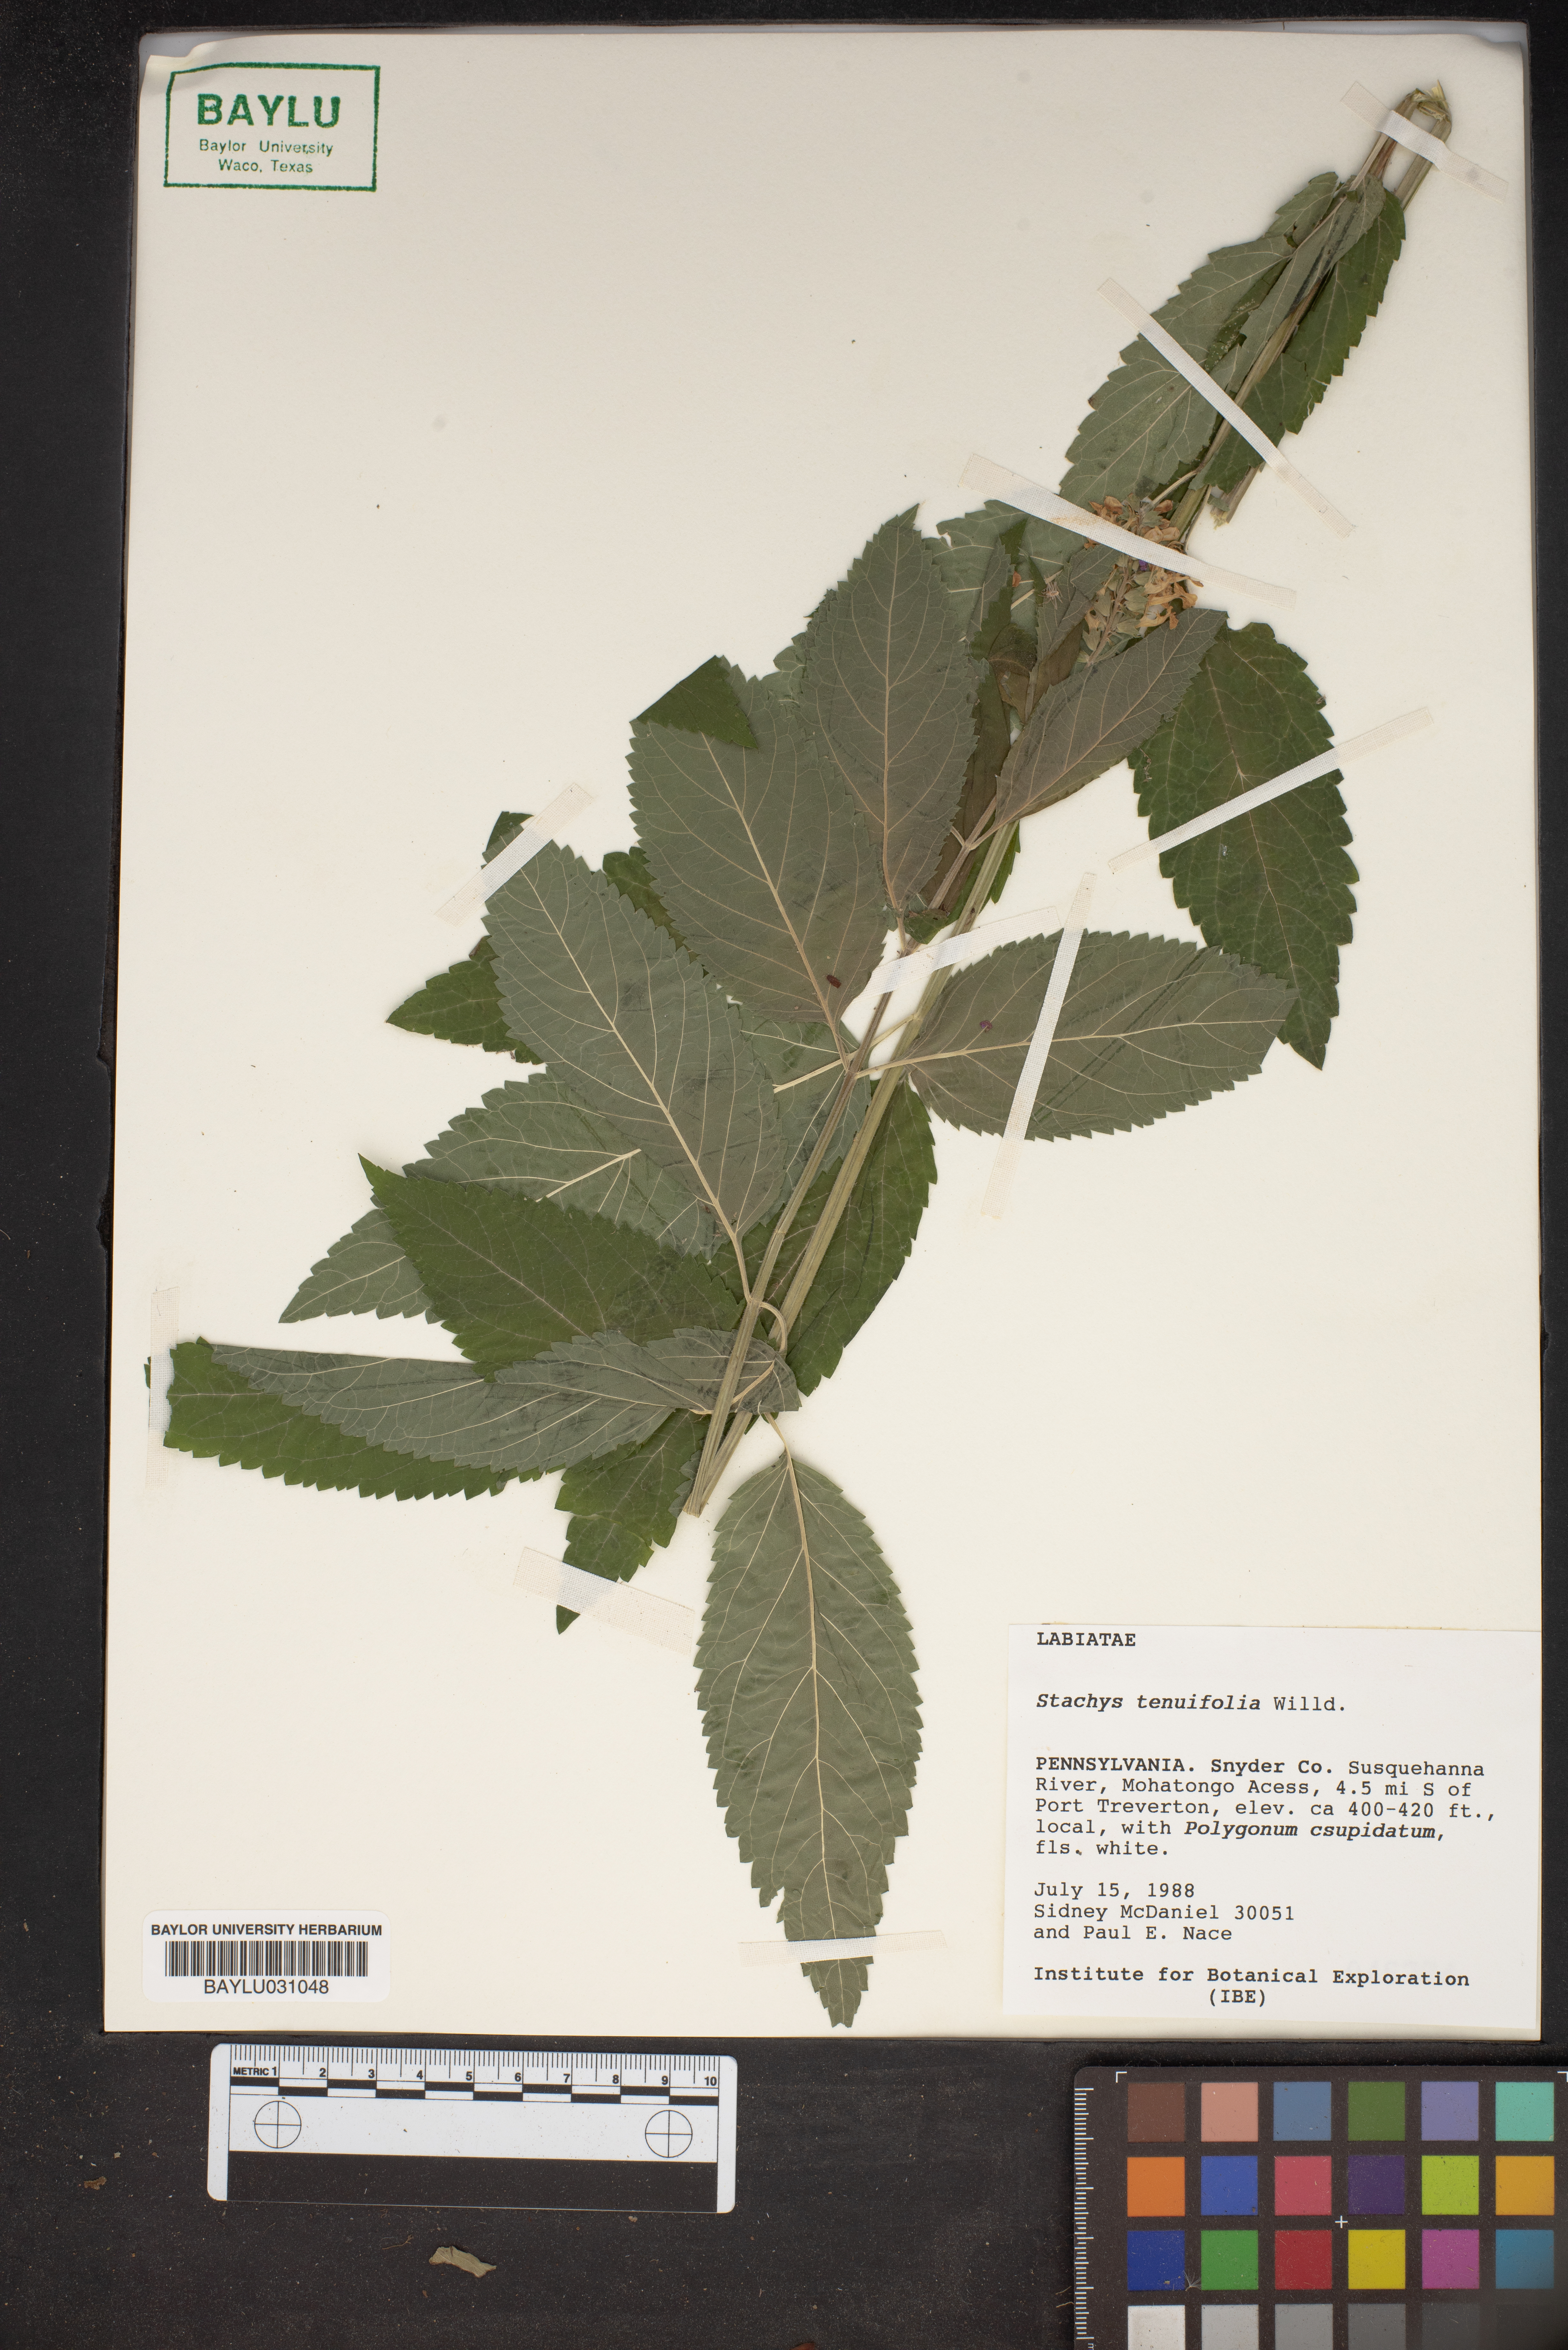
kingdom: Plantae
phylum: Tracheophyta
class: Magnoliopsida
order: Lamiales
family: Lamiaceae
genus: Stachys
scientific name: Stachys tenuifolia
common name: Smooth hedge-nettle
